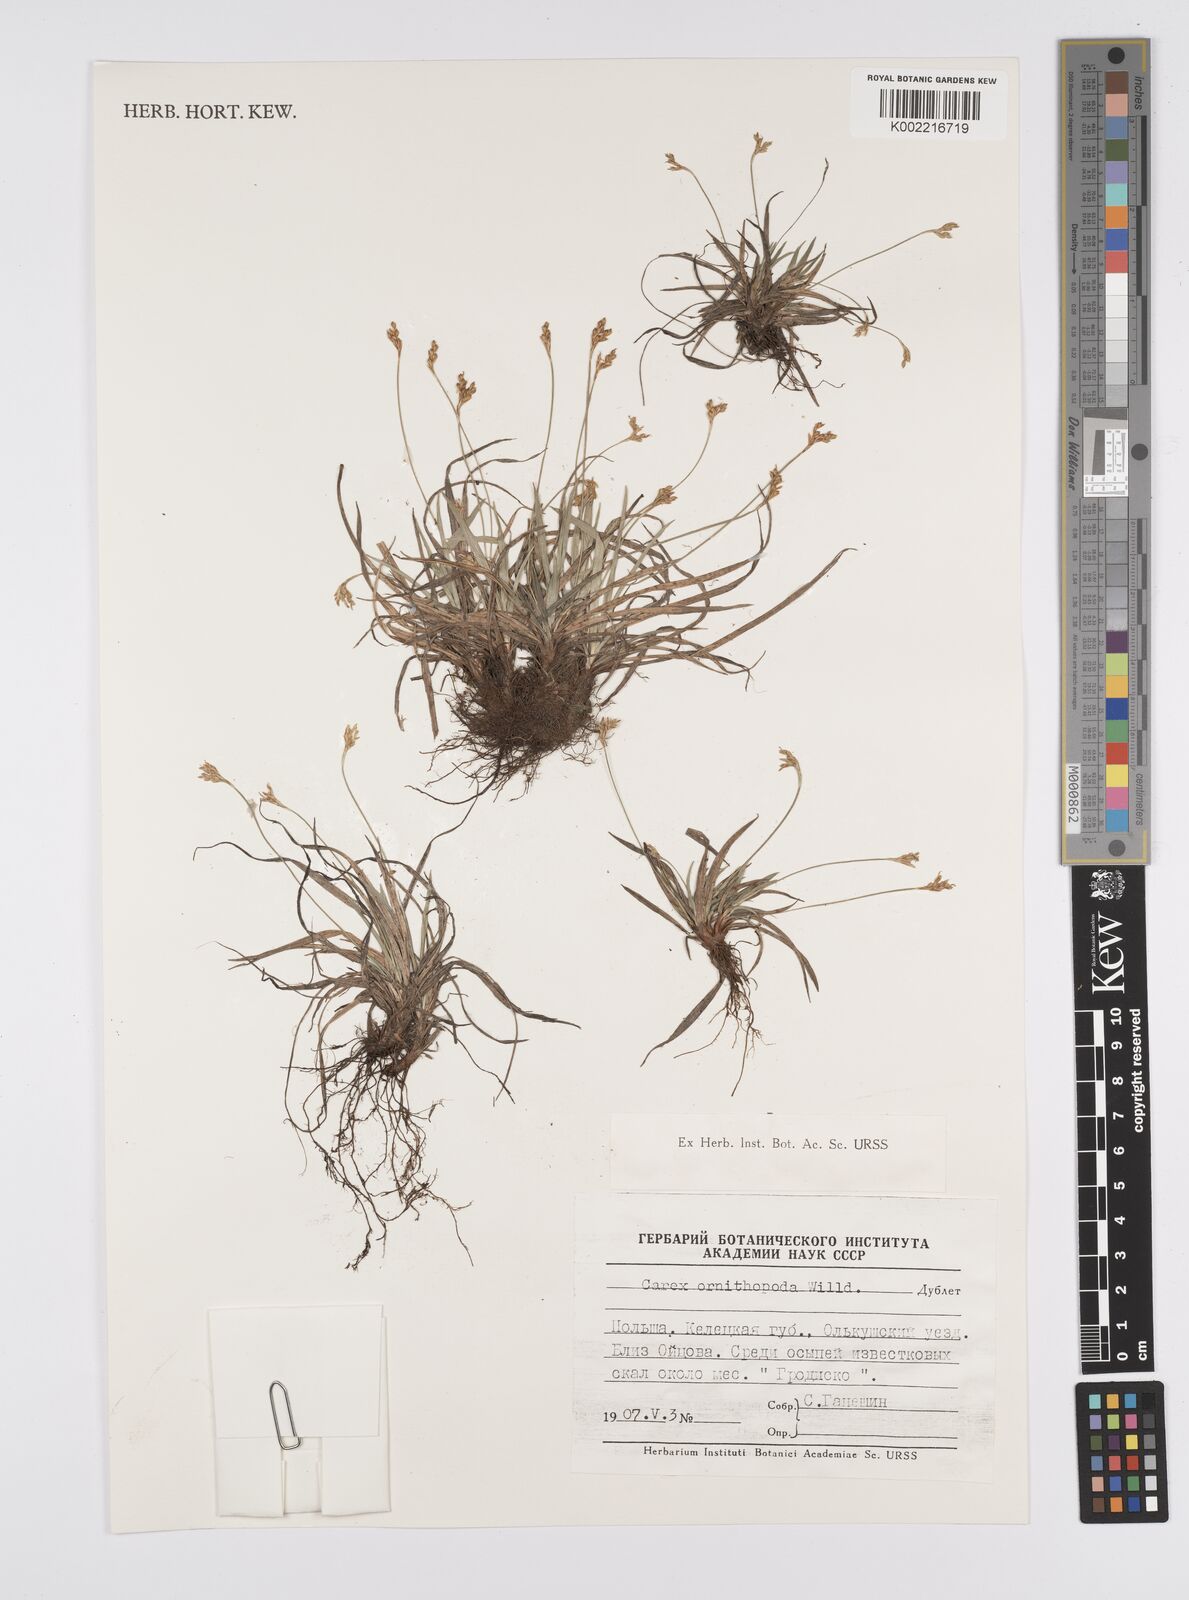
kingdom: Plantae
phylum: Tracheophyta
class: Liliopsida
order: Poales
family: Cyperaceae
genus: Carex
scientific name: Carex ornithopoda
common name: Bird's-foot sedge
